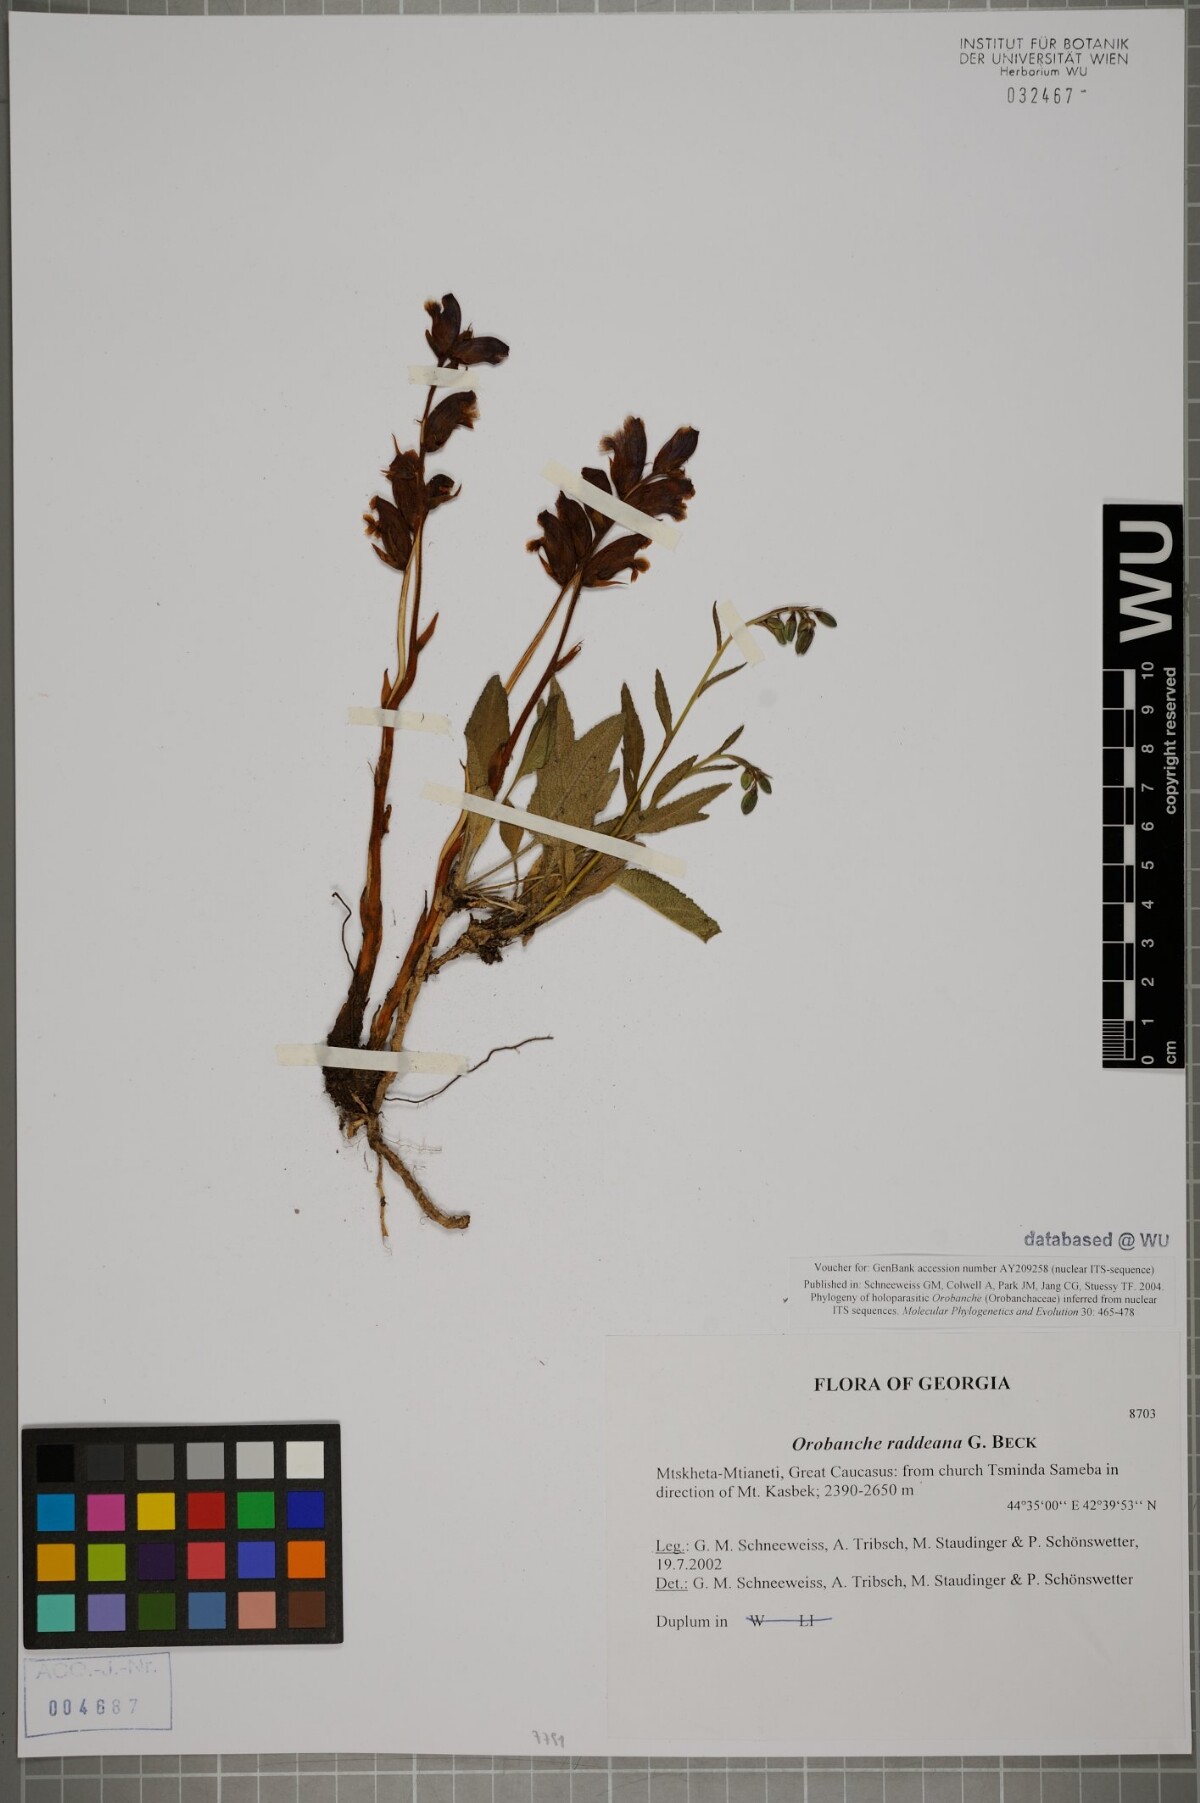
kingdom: Plantae
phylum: Tracheophyta
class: Magnoliopsida
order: Lamiales
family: Orobanchaceae
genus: Orobanche
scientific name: Orobanche alba
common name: Thyme broomrape
